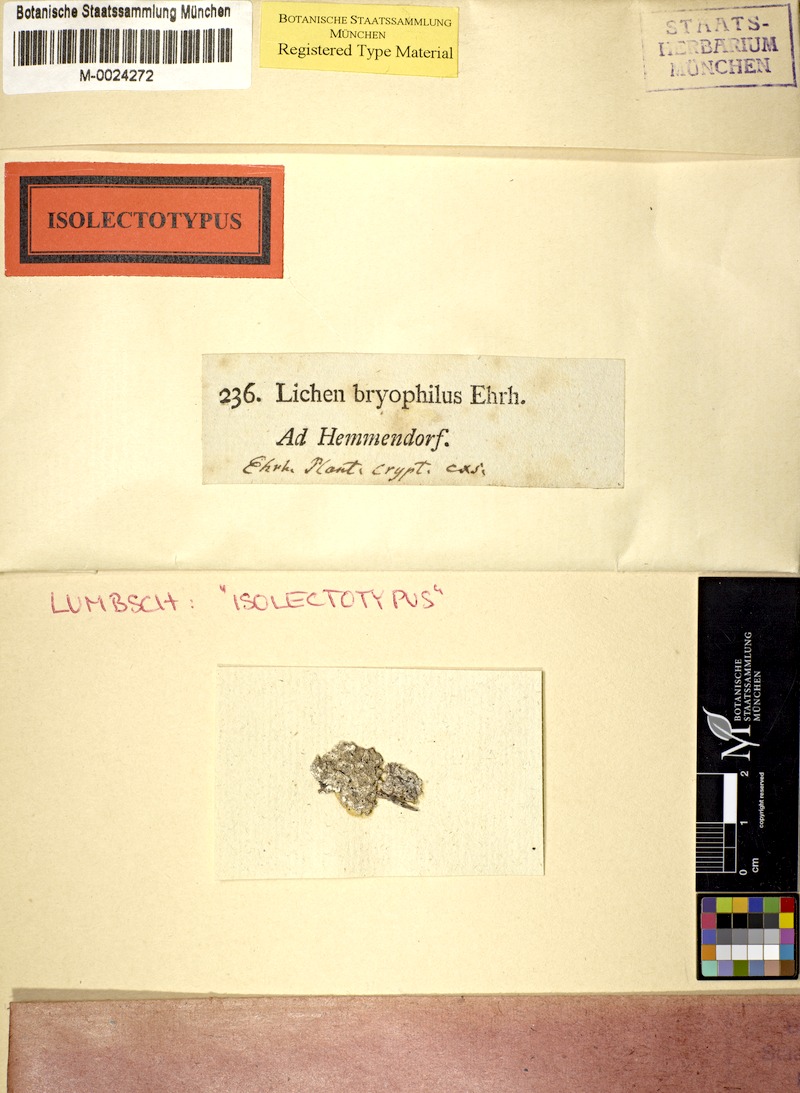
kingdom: Fungi
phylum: Ascomycota
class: Lecanoromycetes
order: Ostropales
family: Graphidaceae
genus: Diploschistes
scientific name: Diploschistes muscorum
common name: Cowpie lichen
